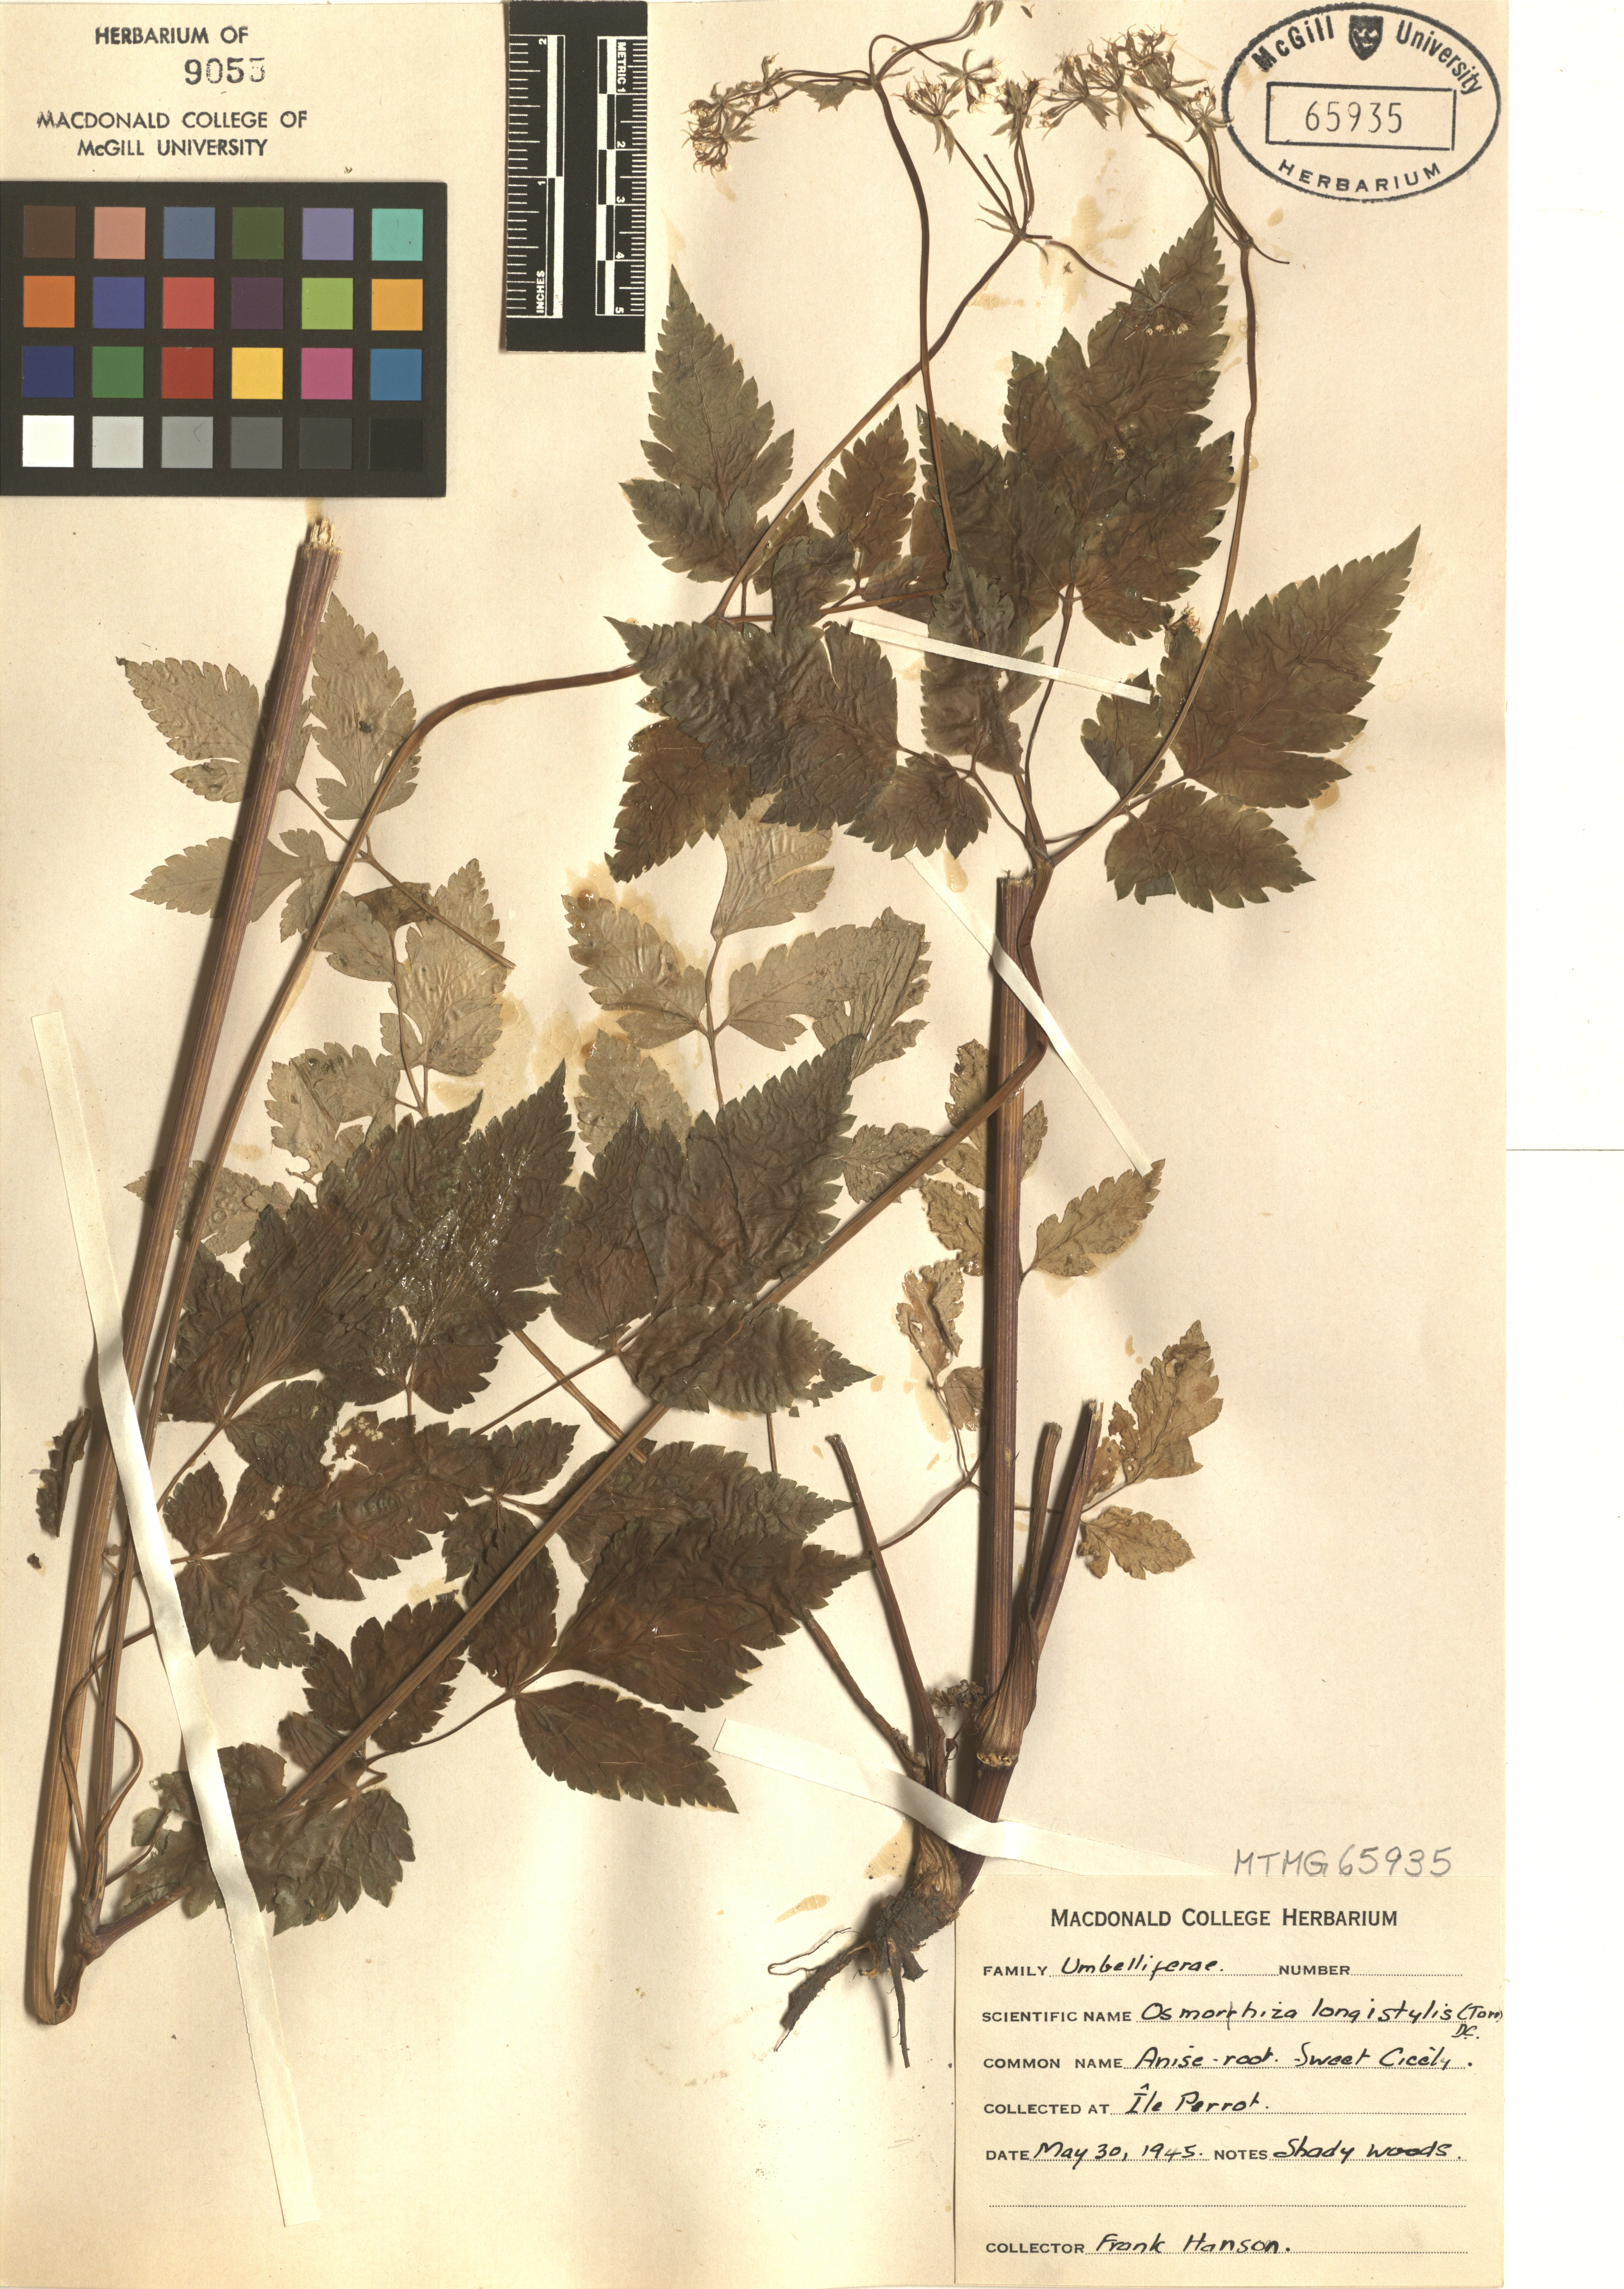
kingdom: Plantae
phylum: Tracheophyta
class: Magnoliopsida
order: Apiales
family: Apiaceae
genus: Osmorhiza
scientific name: Osmorhiza longistylis
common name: Smooth sweet cicely
